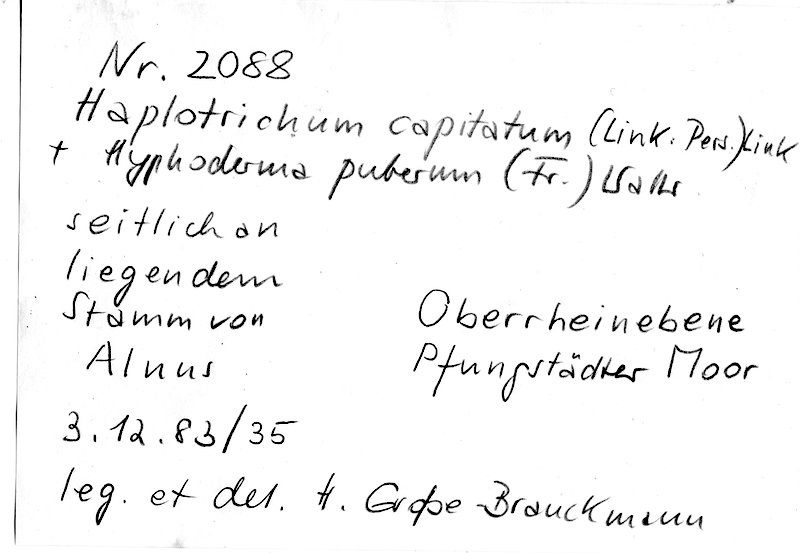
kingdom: Fungi
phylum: Basidiomycota
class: Agaricomycetes
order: Cantharellales
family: Botryobasidiaceae
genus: Botryobasidium
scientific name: Botryobasidium candicans
